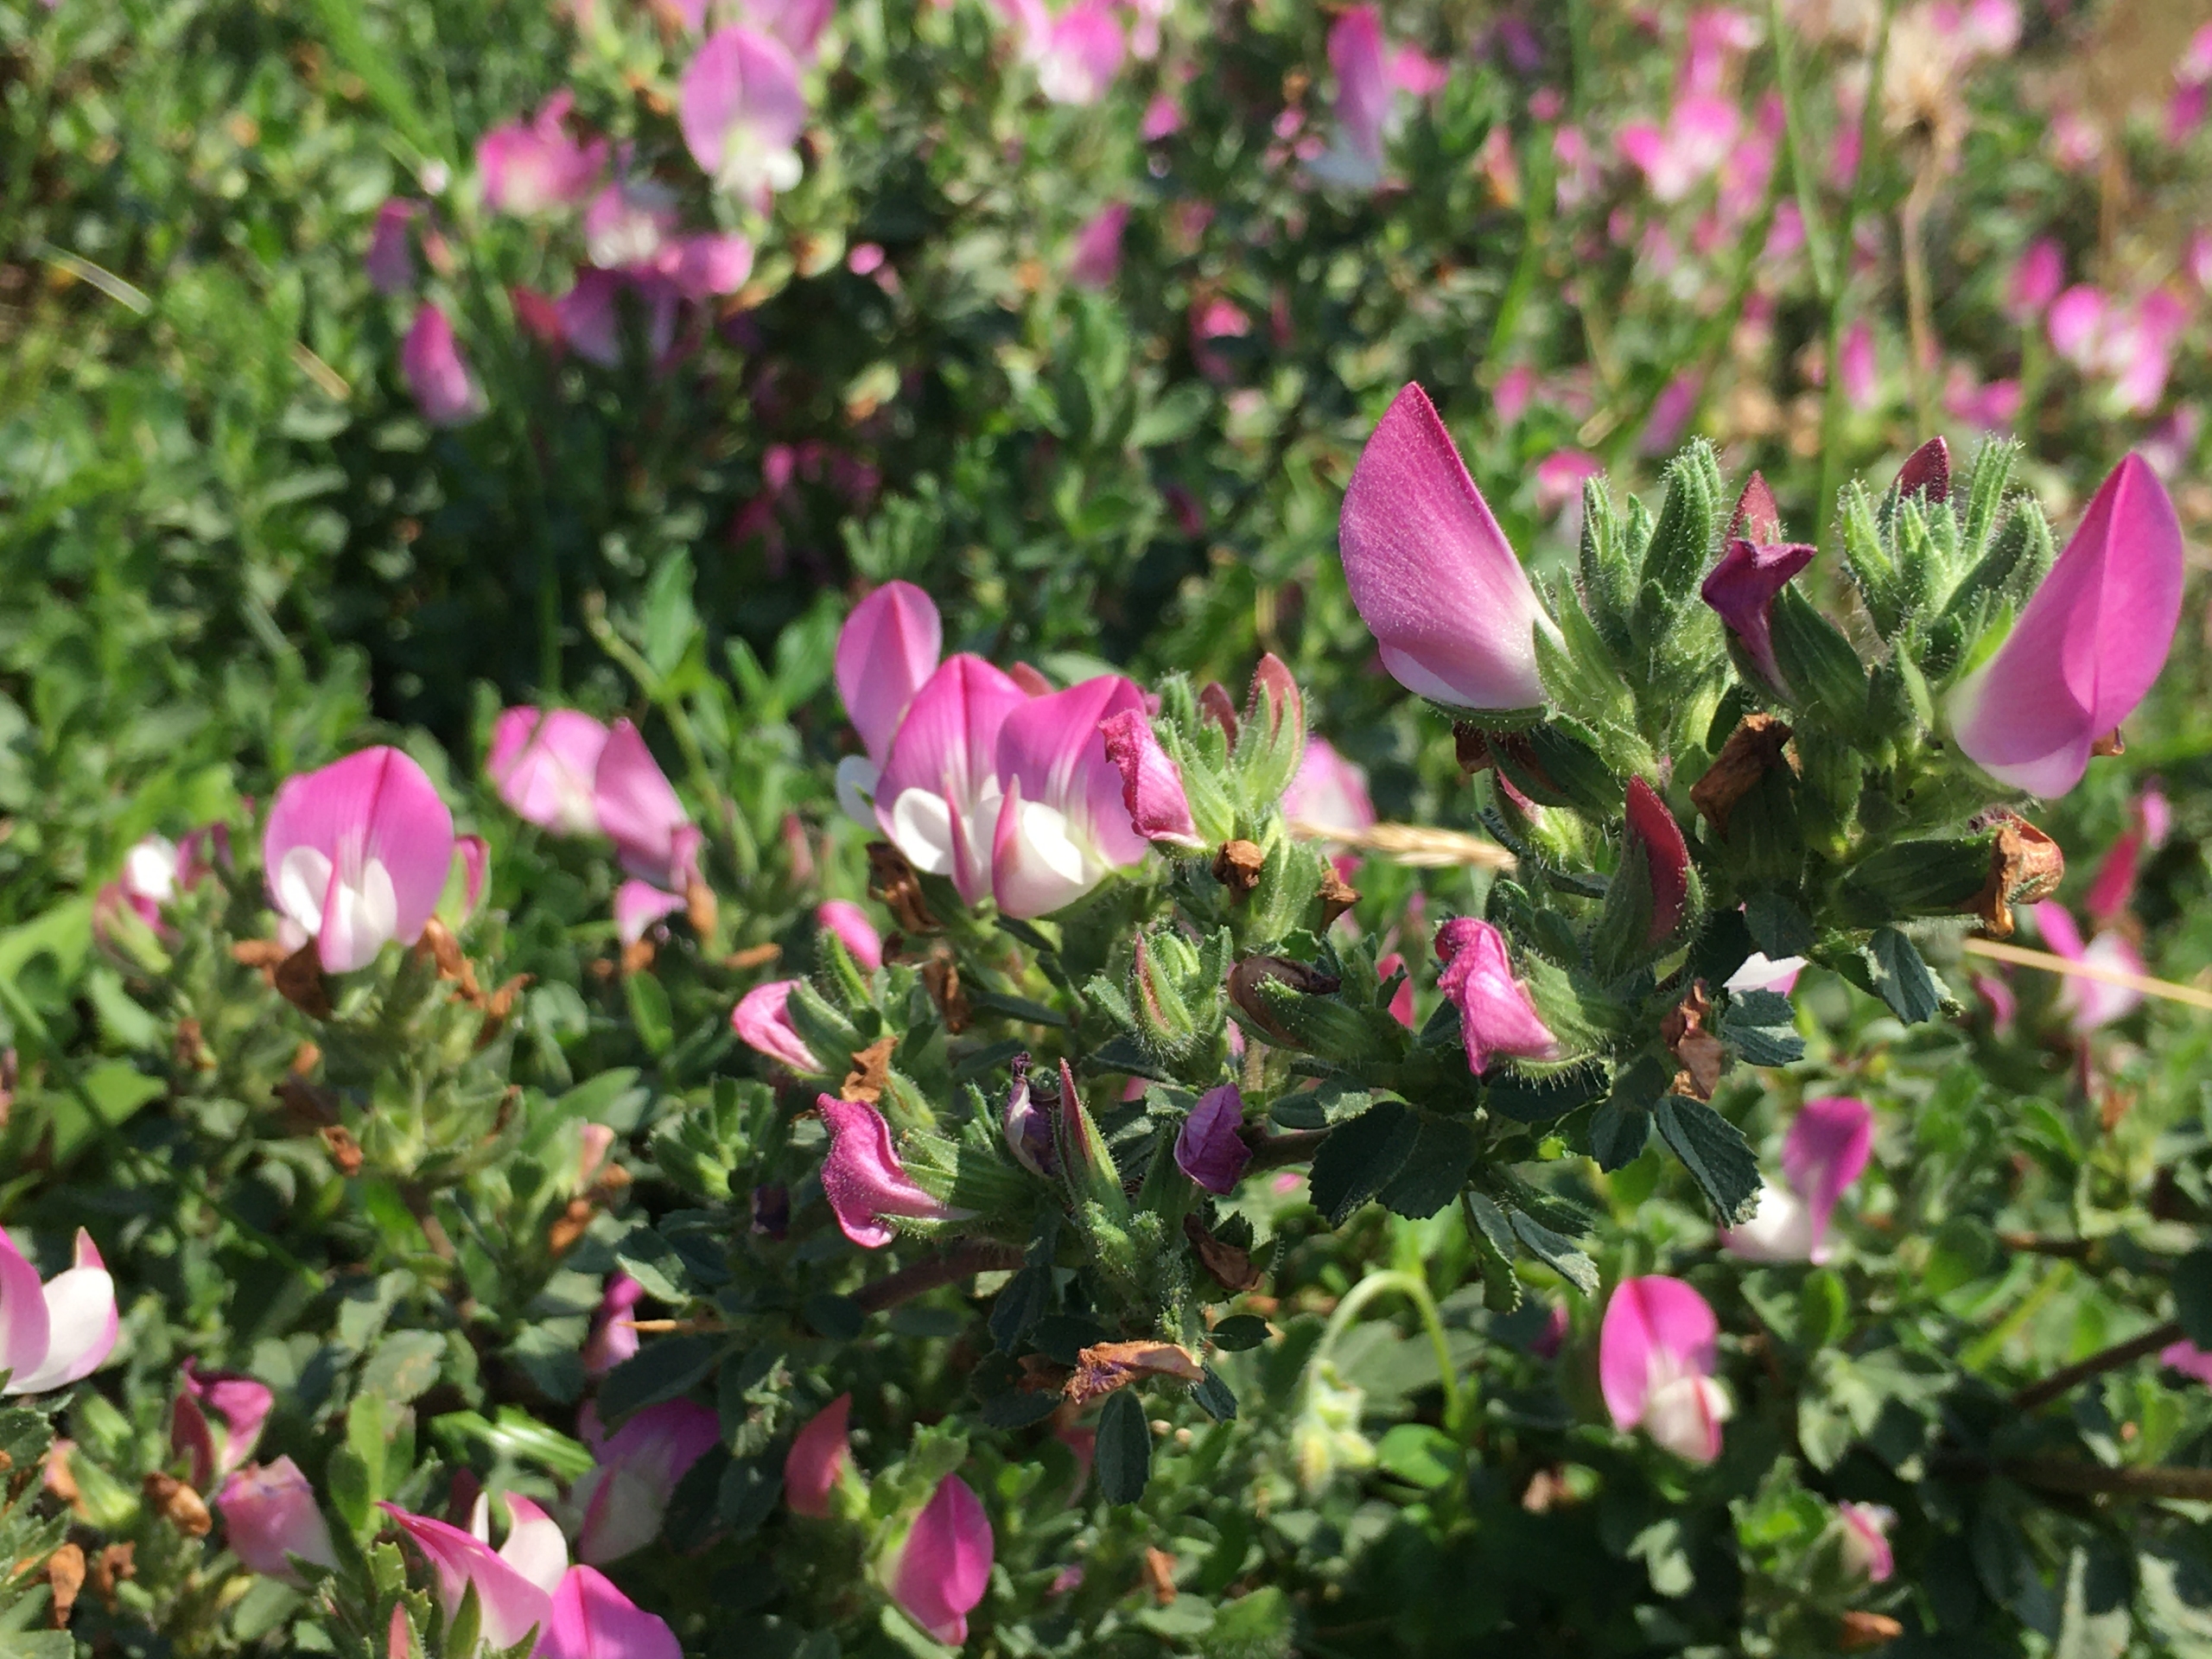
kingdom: Plantae
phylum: Tracheophyta
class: Magnoliopsida
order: Fabales
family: Fabaceae
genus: Ononis
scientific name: Ononis spinosa
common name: Mark-krageklo
